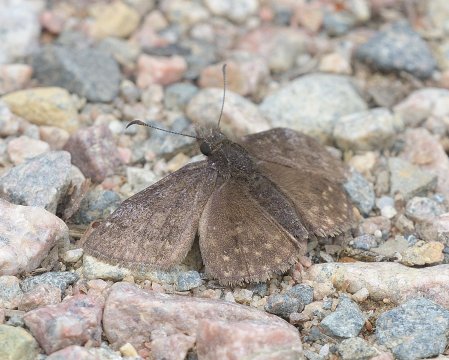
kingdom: Animalia
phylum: Arthropoda
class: Insecta
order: Lepidoptera
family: Hesperiidae
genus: Erynnis
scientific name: Erynnis
